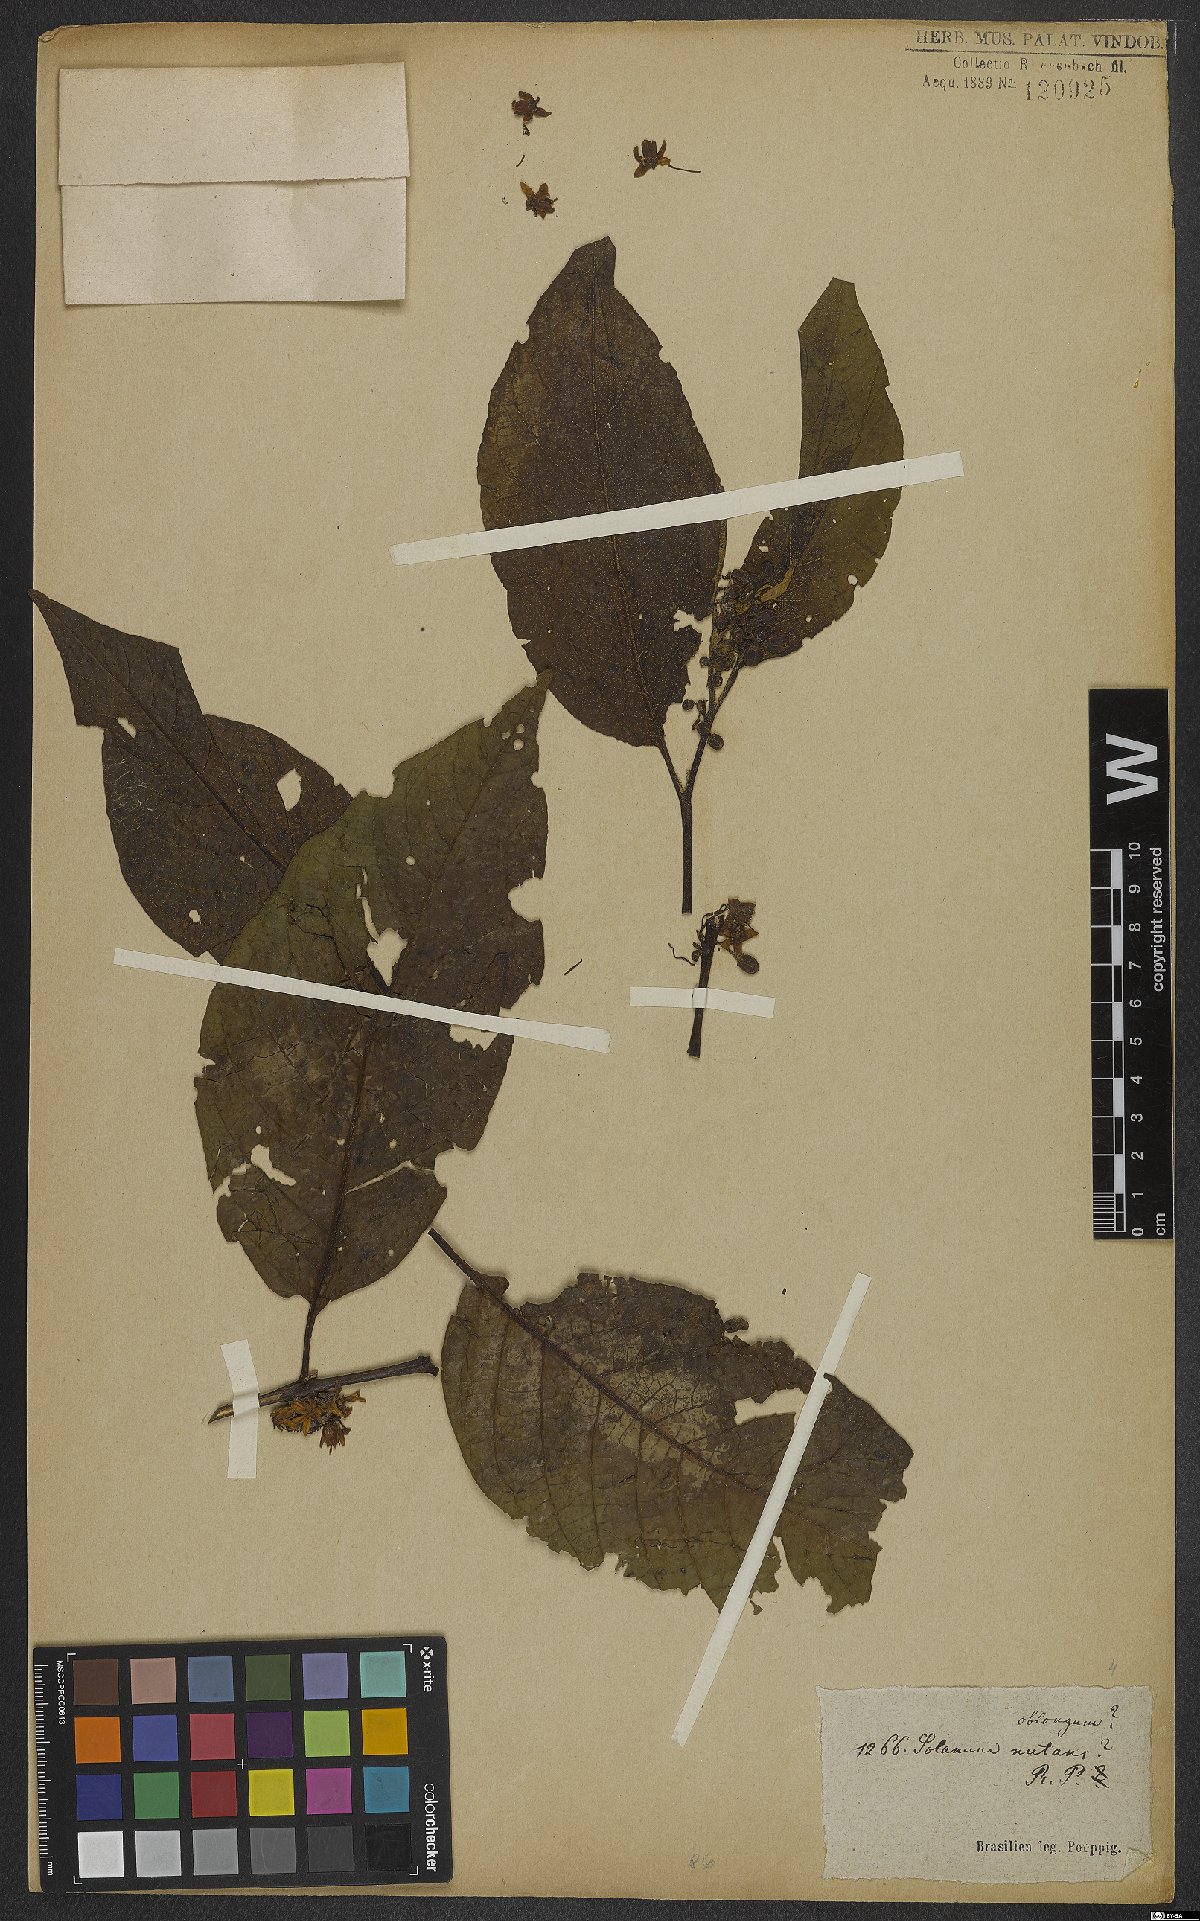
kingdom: Plantae
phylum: Tracheophyta
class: Magnoliopsida
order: Solanales
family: Solanaceae
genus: Solanum
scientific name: Solanum acuminatum
